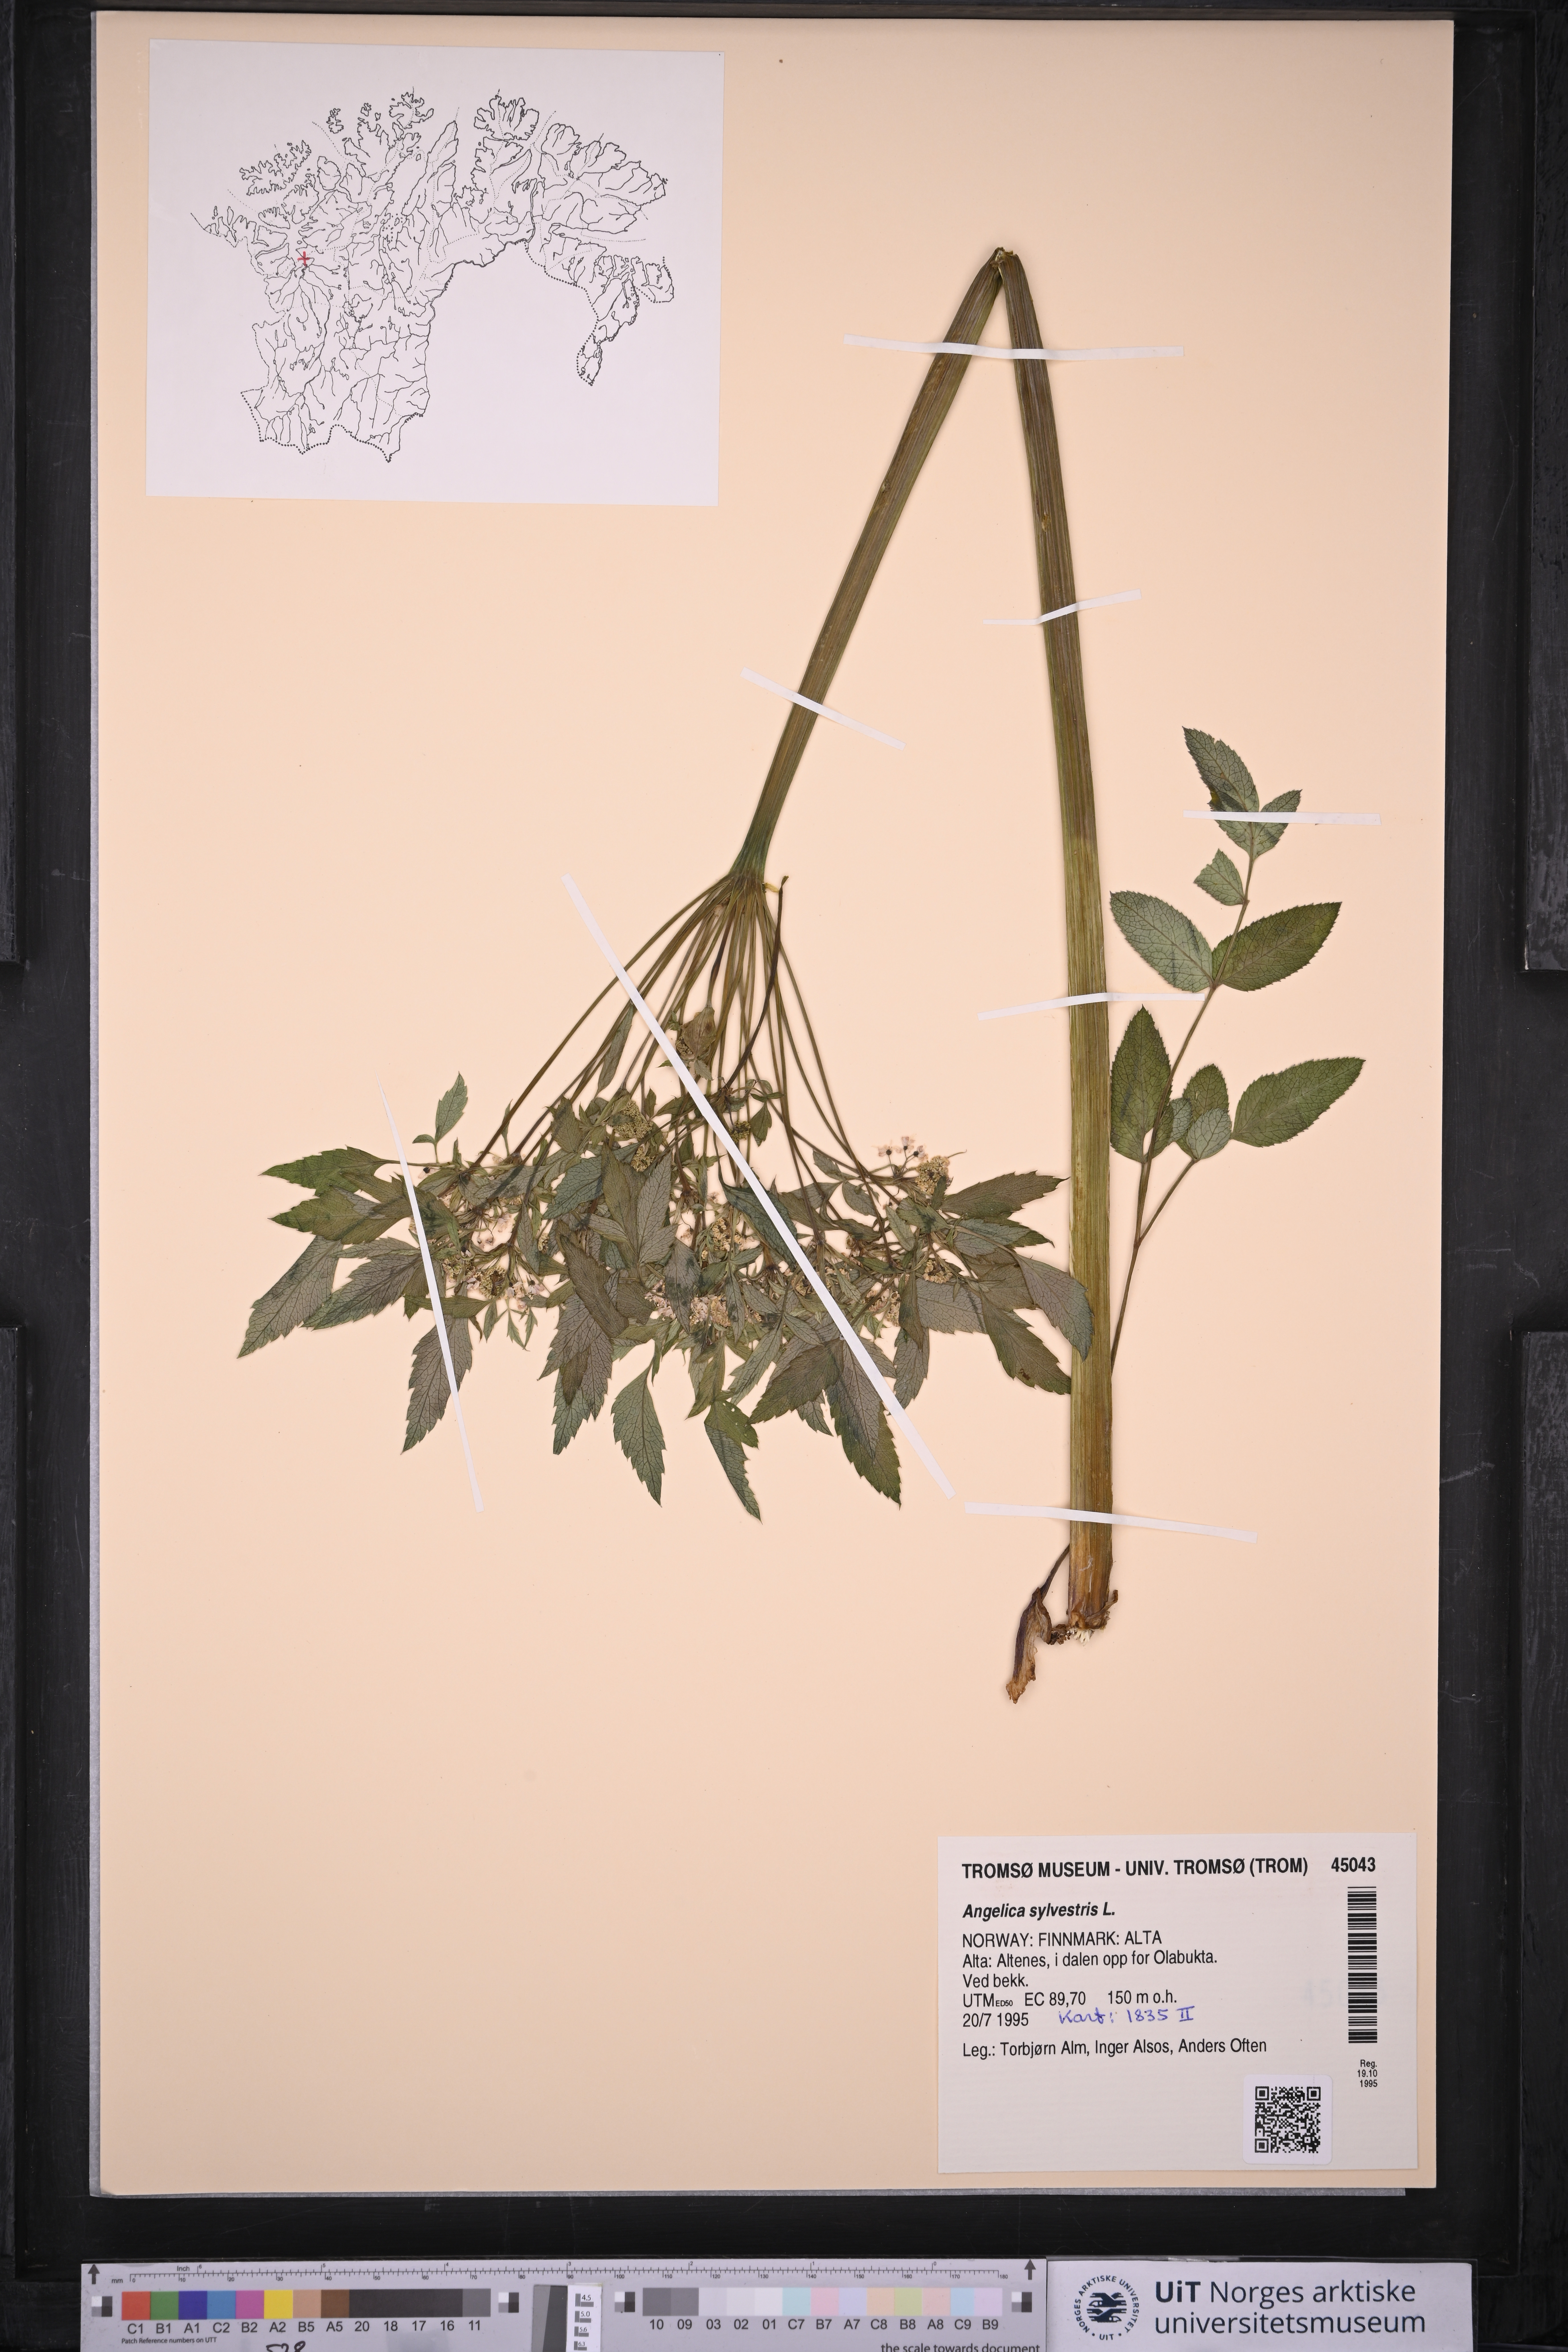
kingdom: Plantae
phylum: Tracheophyta
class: Magnoliopsida
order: Apiales
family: Apiaceae
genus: Angelica
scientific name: Angelica sylvestris
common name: Wild angelica
